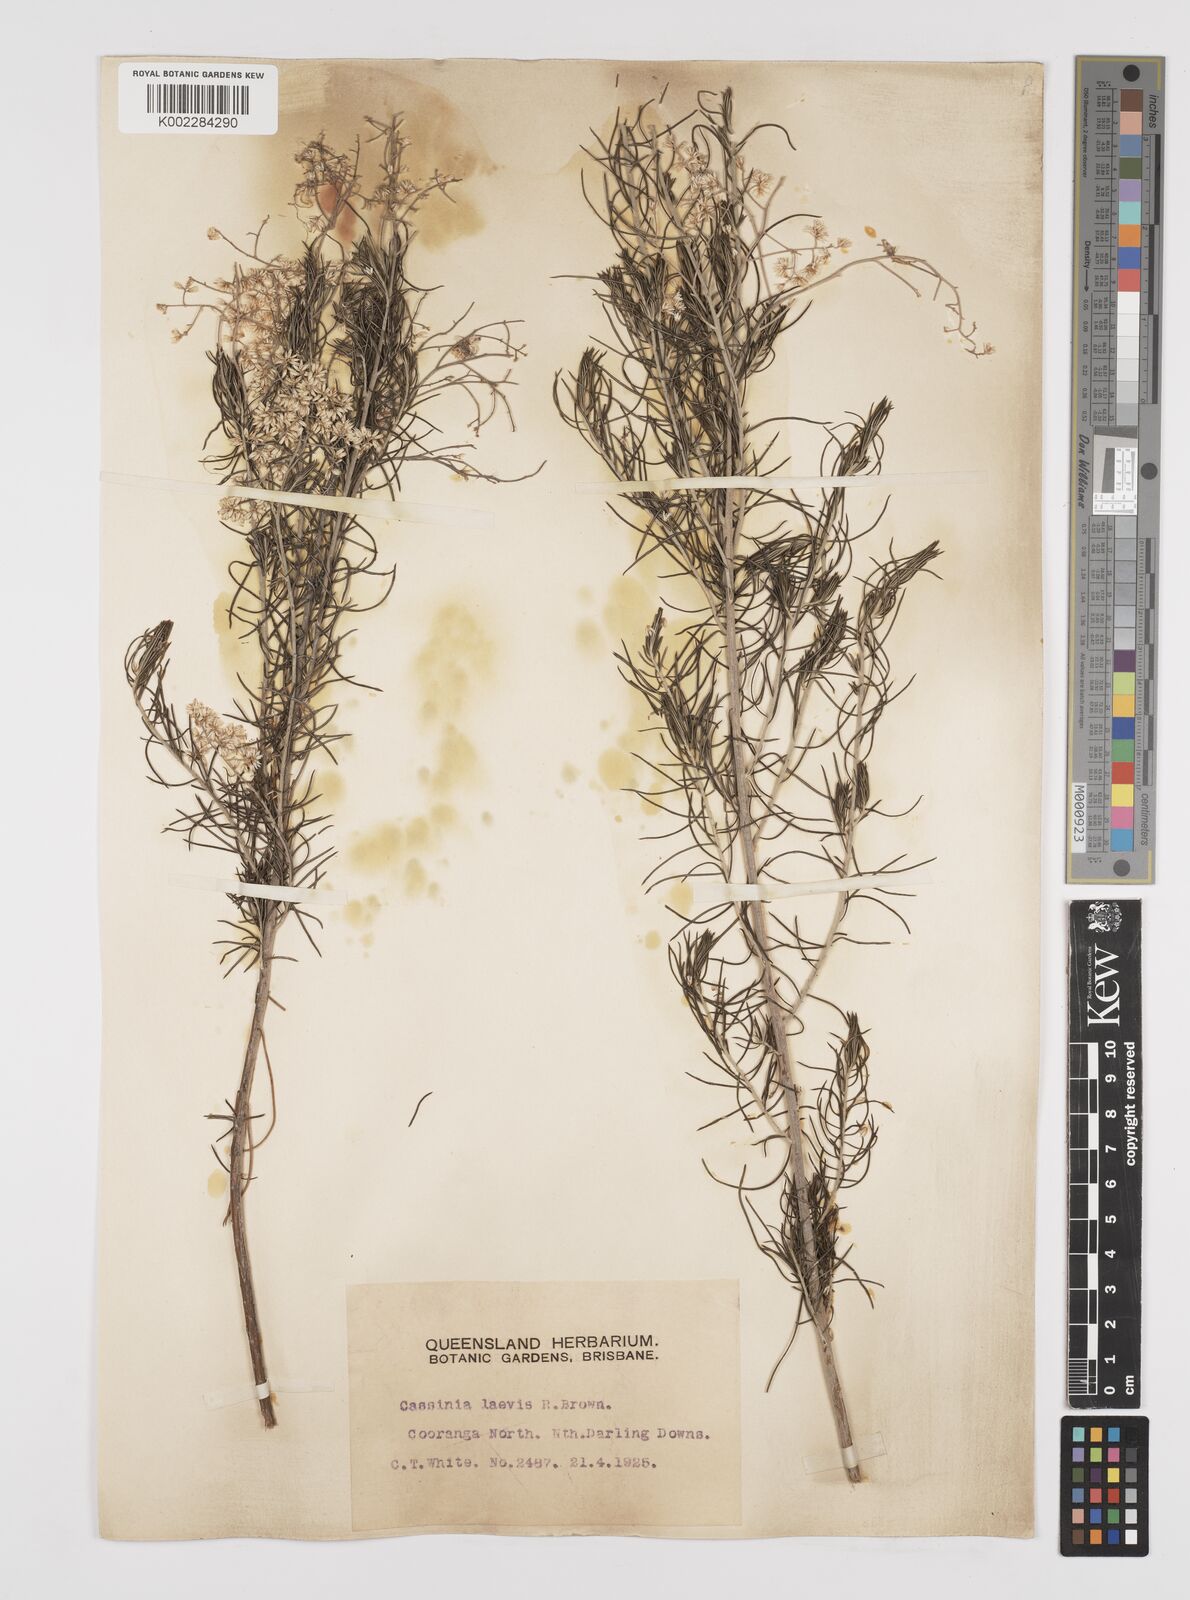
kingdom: Plantae
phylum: Tracheophyta
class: Magnoliopsida
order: Asterales
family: Asteraceae
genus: Cassinia
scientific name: Cassinia laevis
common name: Coughbush
